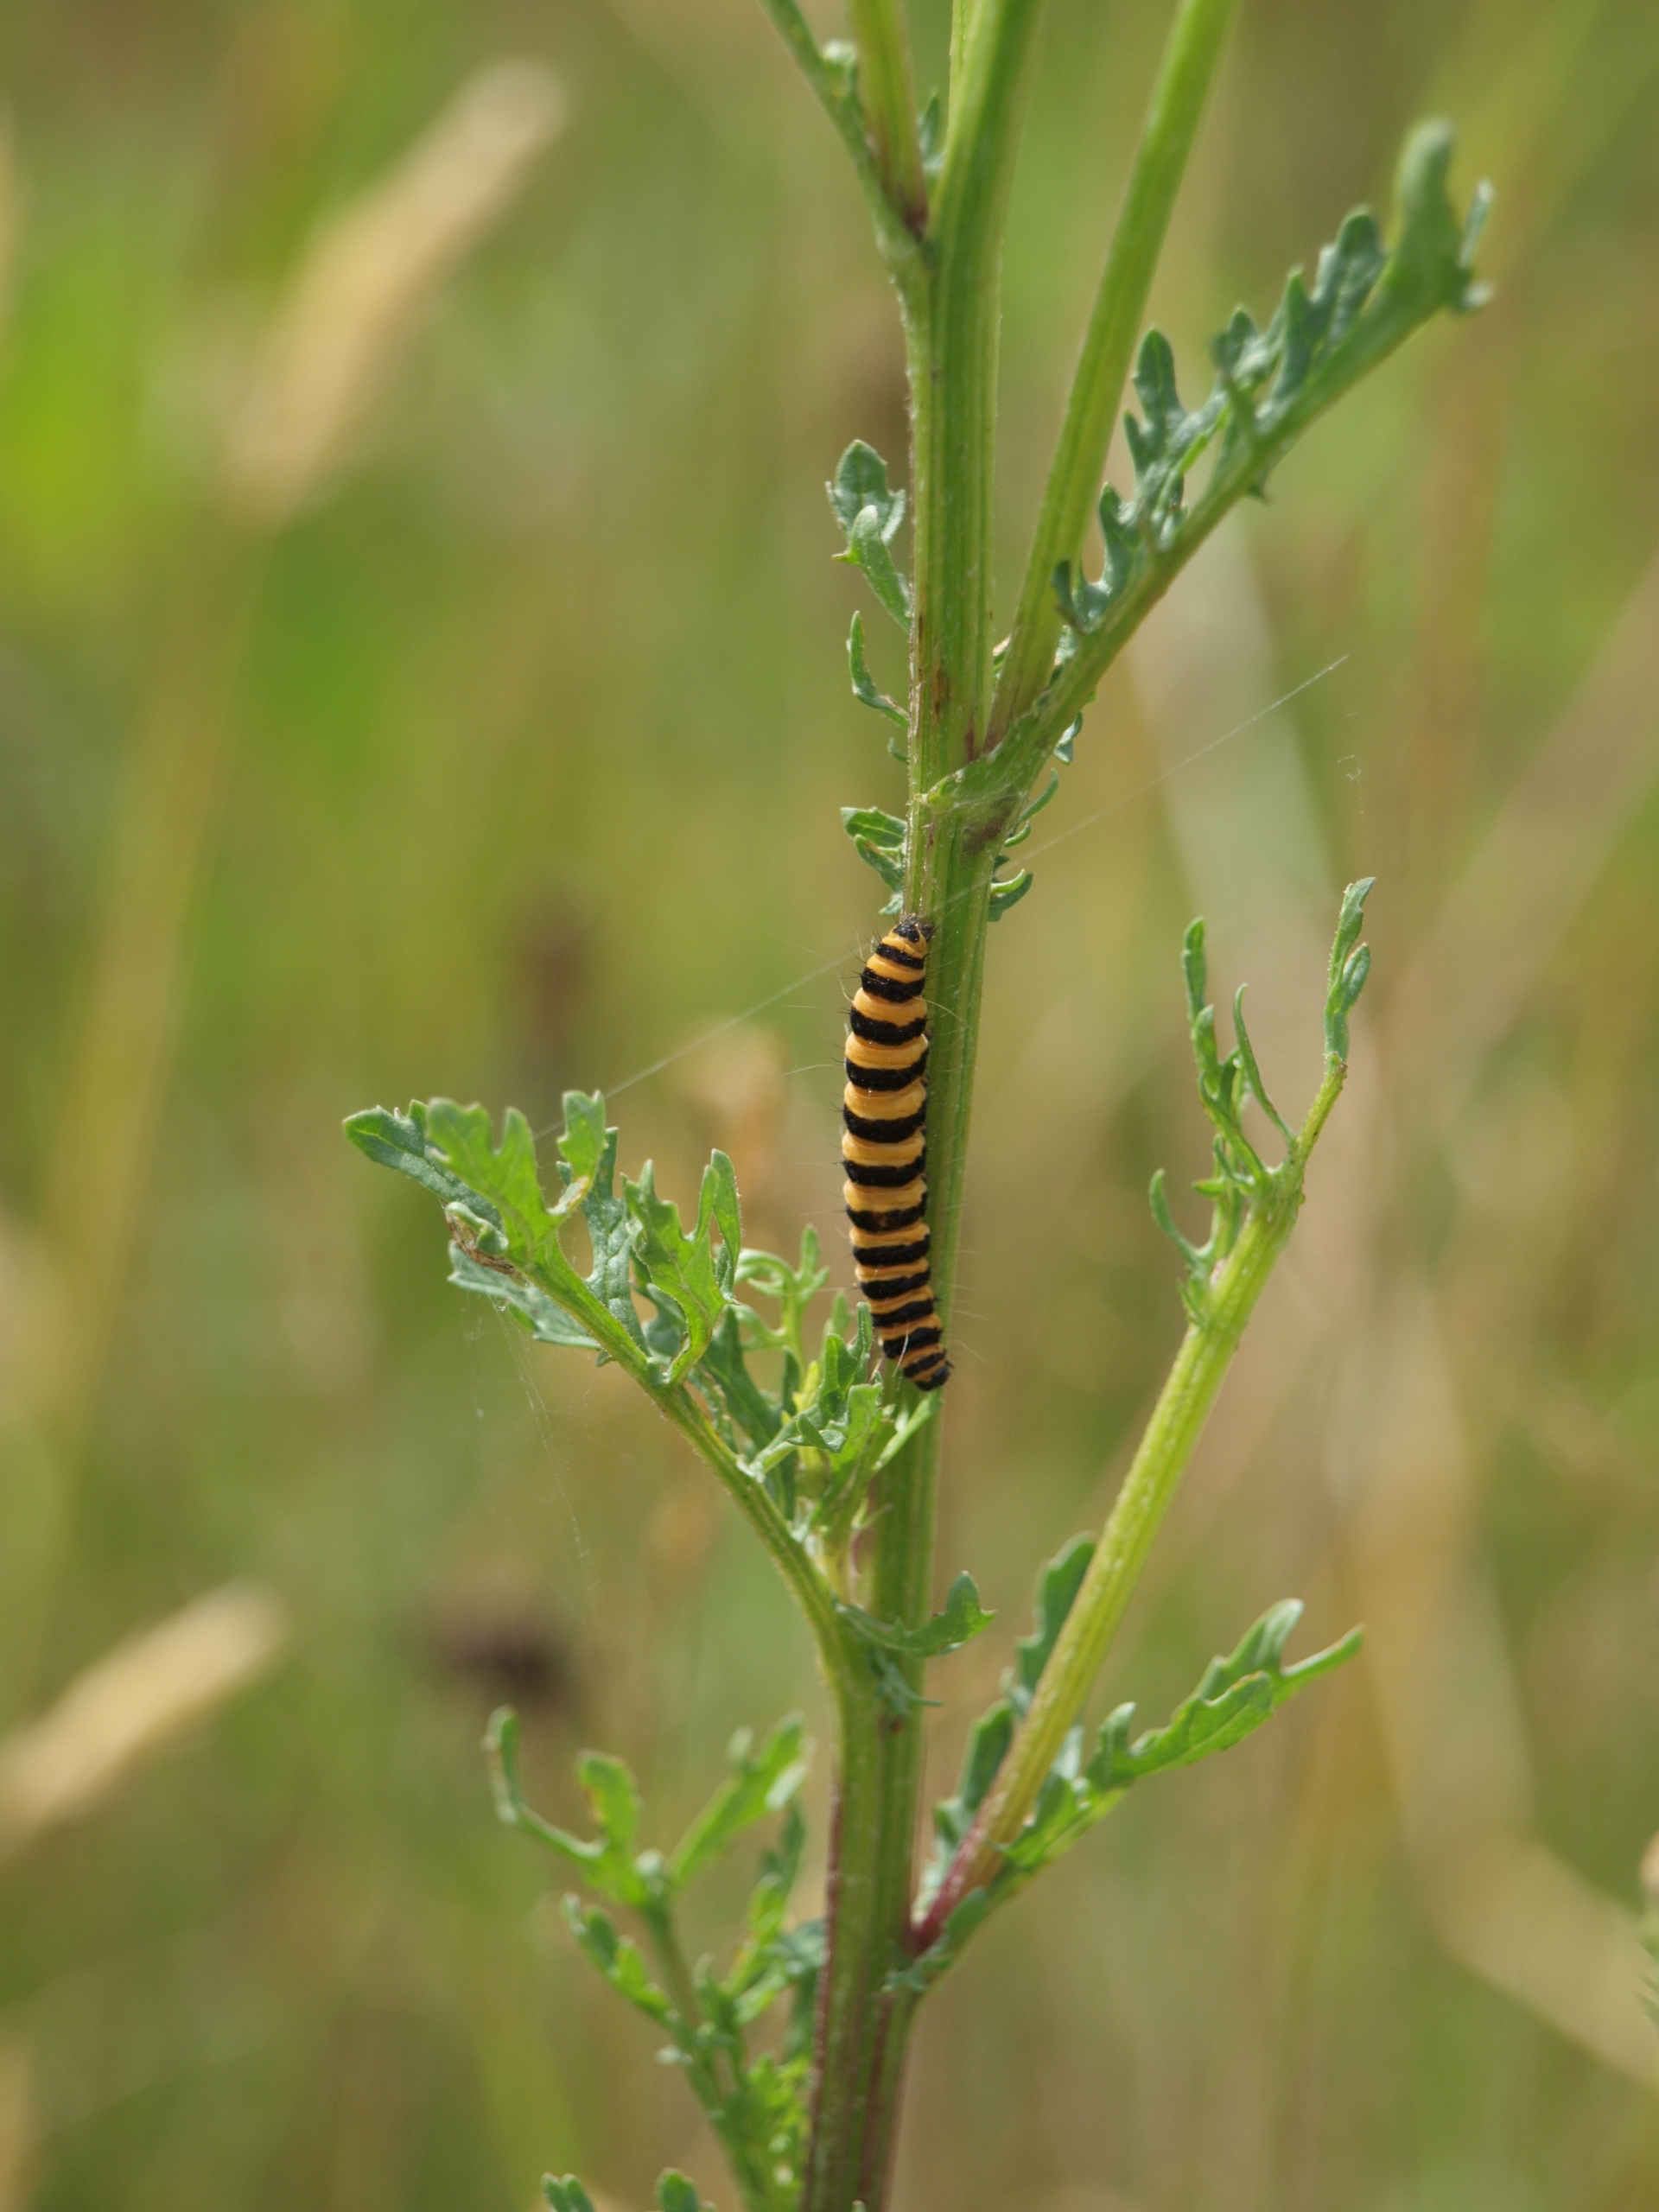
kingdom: Animalia
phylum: Arthropoda
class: Insecta
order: Lepidoptera
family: Erebidae
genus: Tyria
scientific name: Tyria jacobaeae
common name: Blodplet
